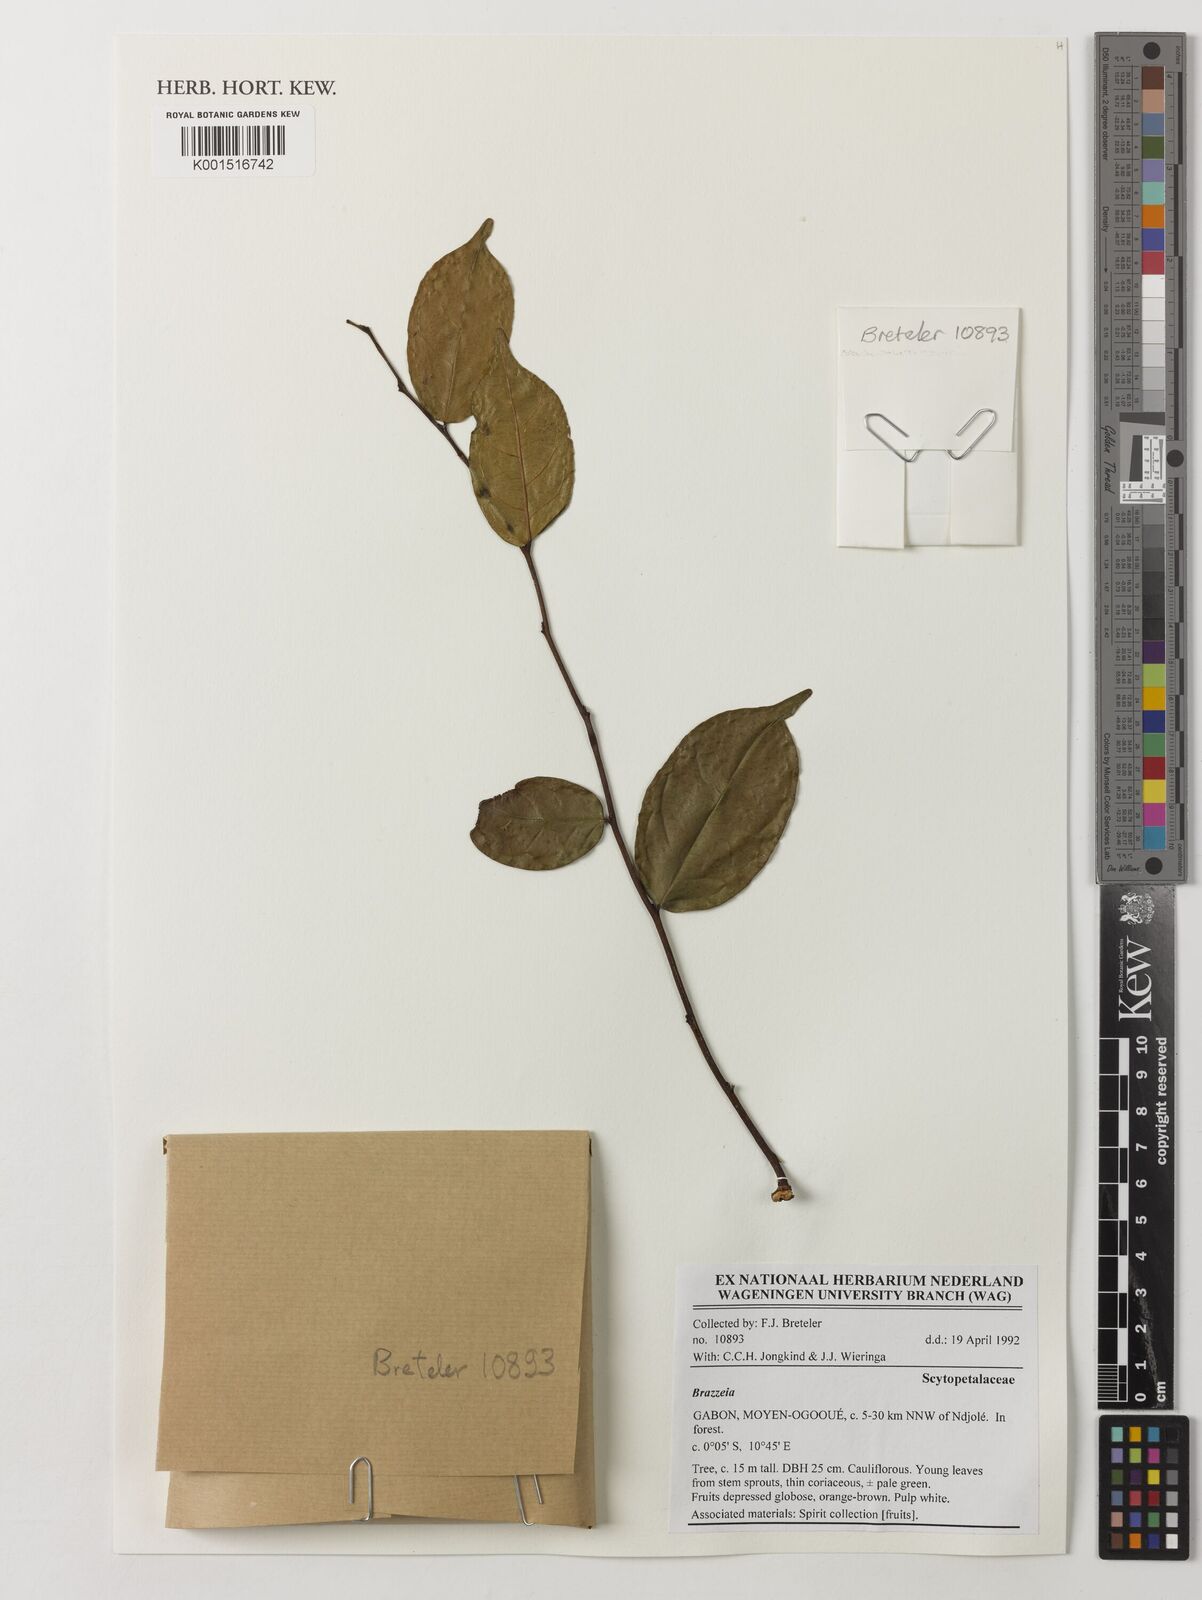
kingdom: Plantae
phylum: Tracheophyta
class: Magnoliopsida
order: Ericales
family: Lecythidaceae
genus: Brazzeia
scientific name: Brazzeia
